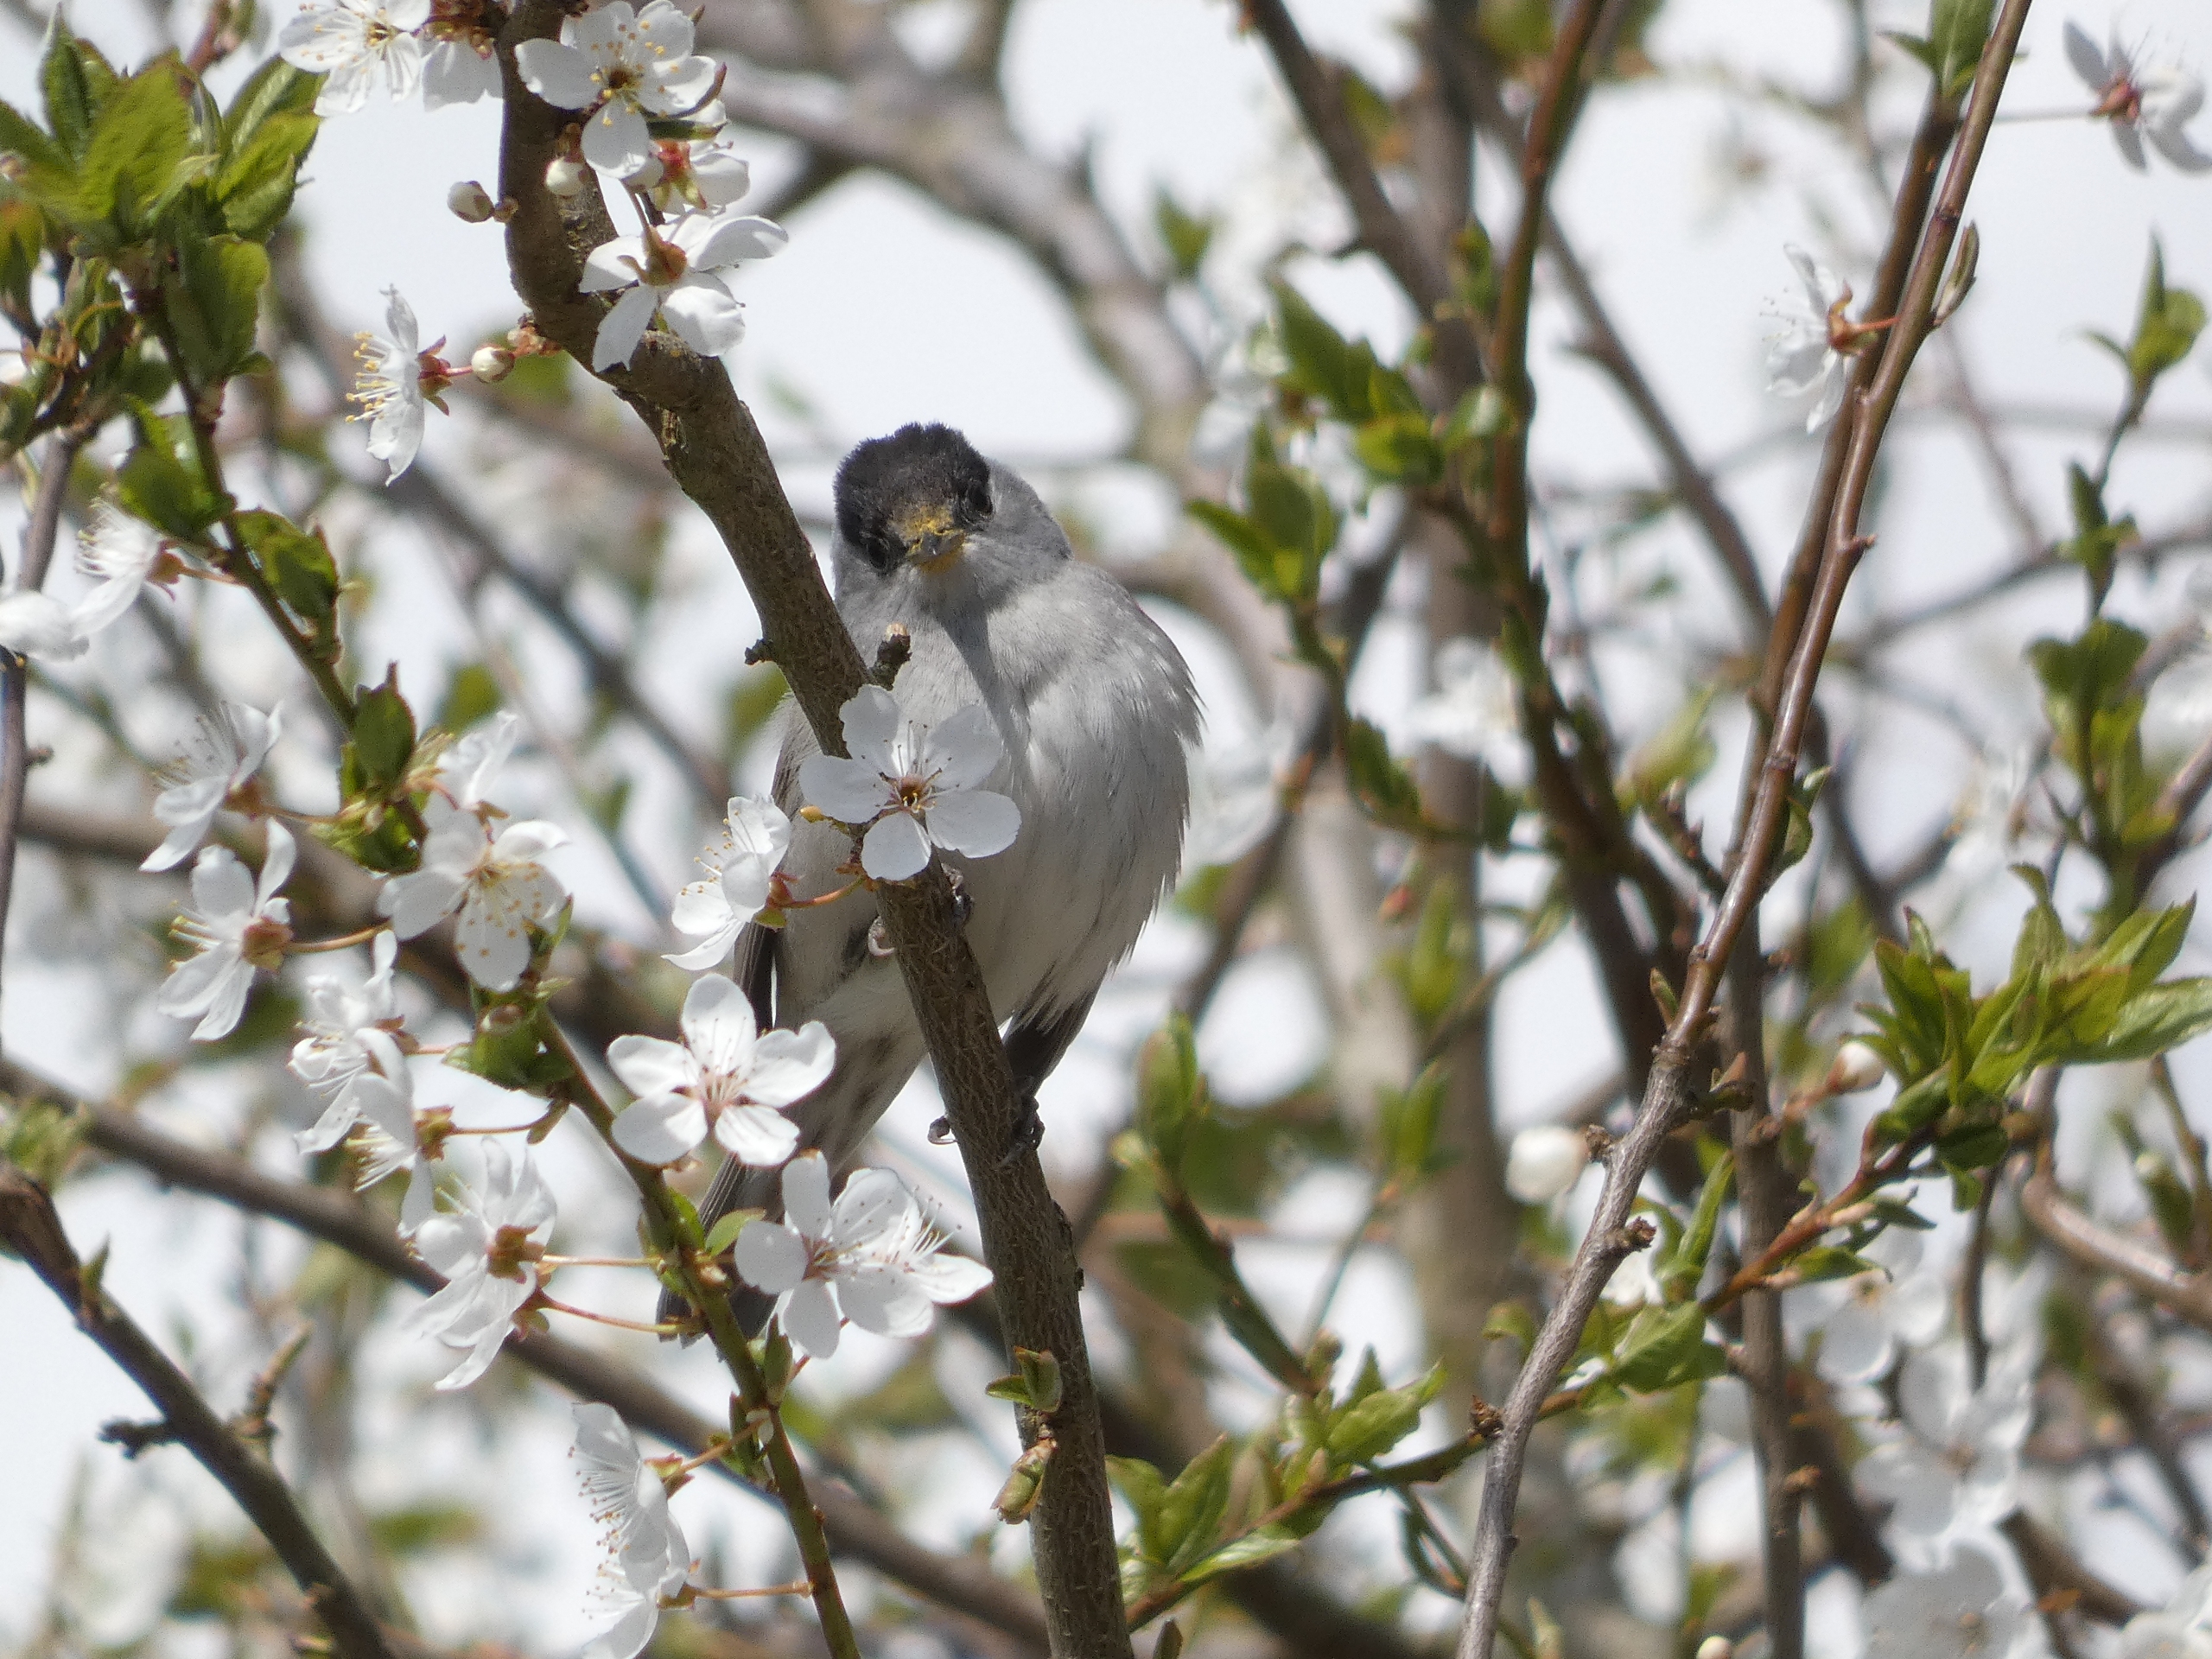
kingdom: Animalia
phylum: Chordata
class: Aves
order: Passeriformes
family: Sylviidae
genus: Sylvia
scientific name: Sylvia atricapilla
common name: Munk
